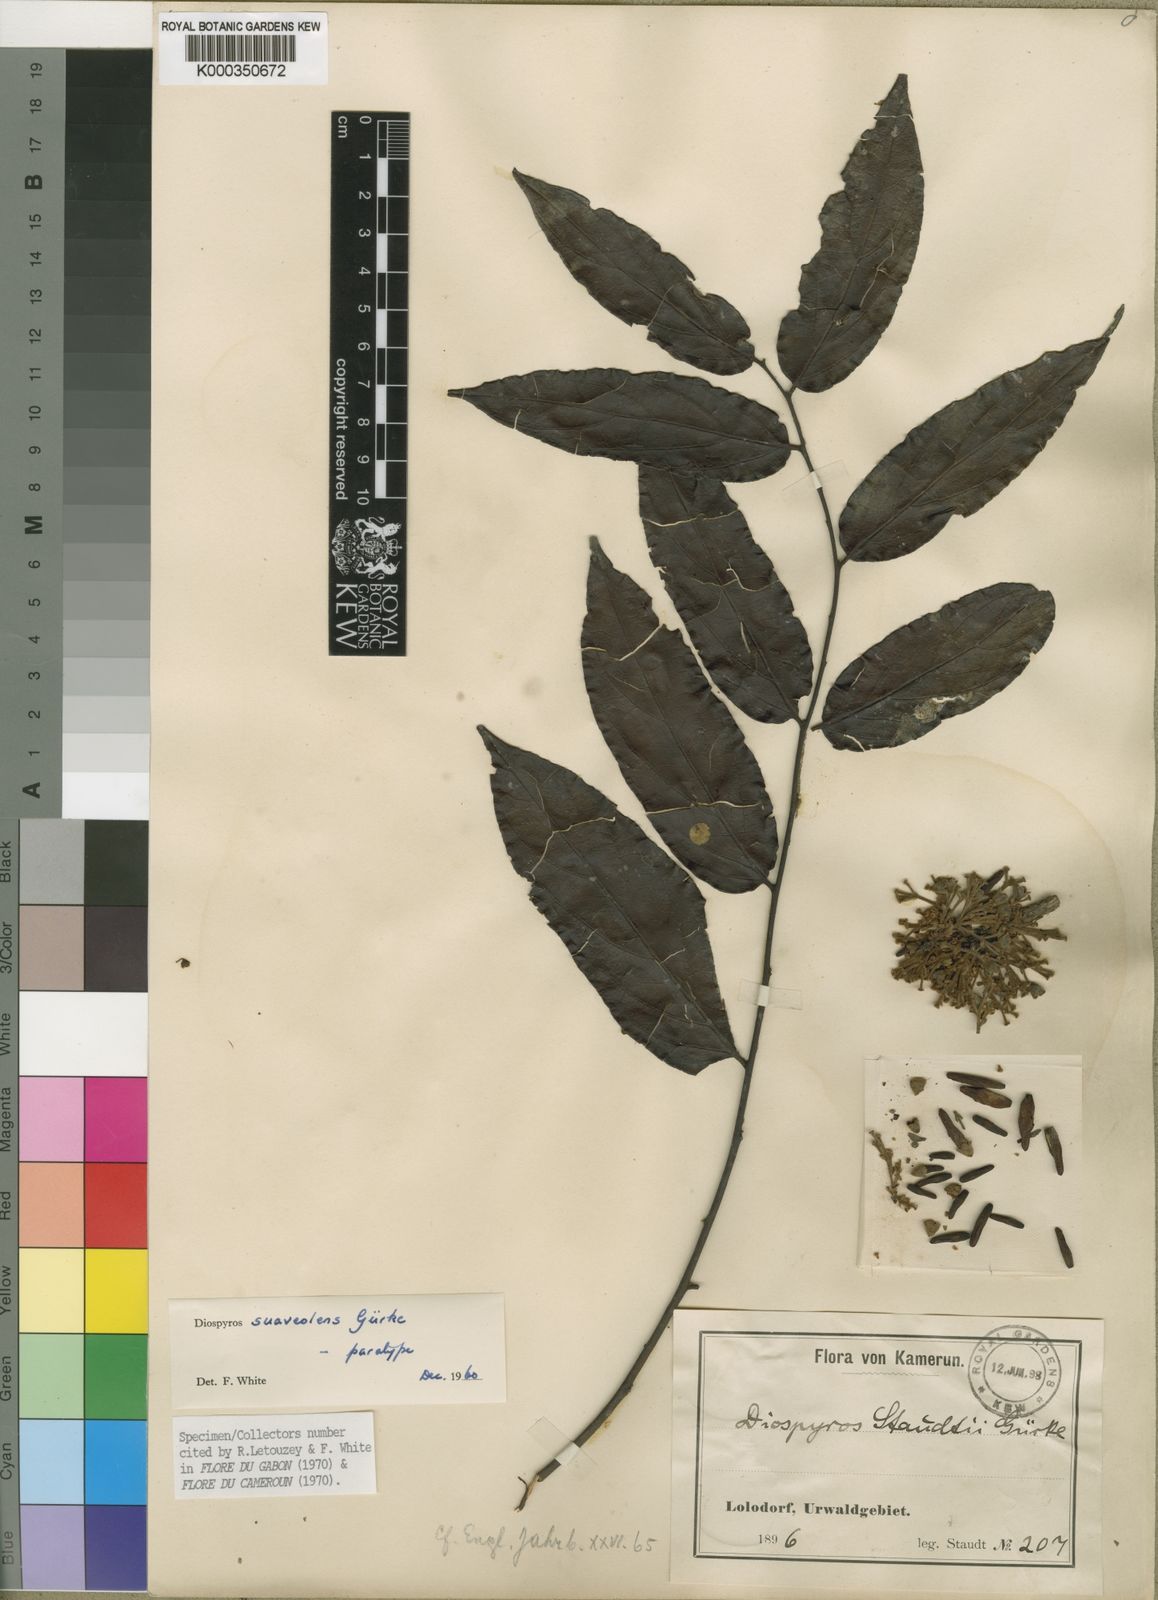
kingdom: Plantae
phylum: Tracheophyta
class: Magnoliopsida
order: Ericales
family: Ebenaceae
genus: Diospyros
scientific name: Diospyros
